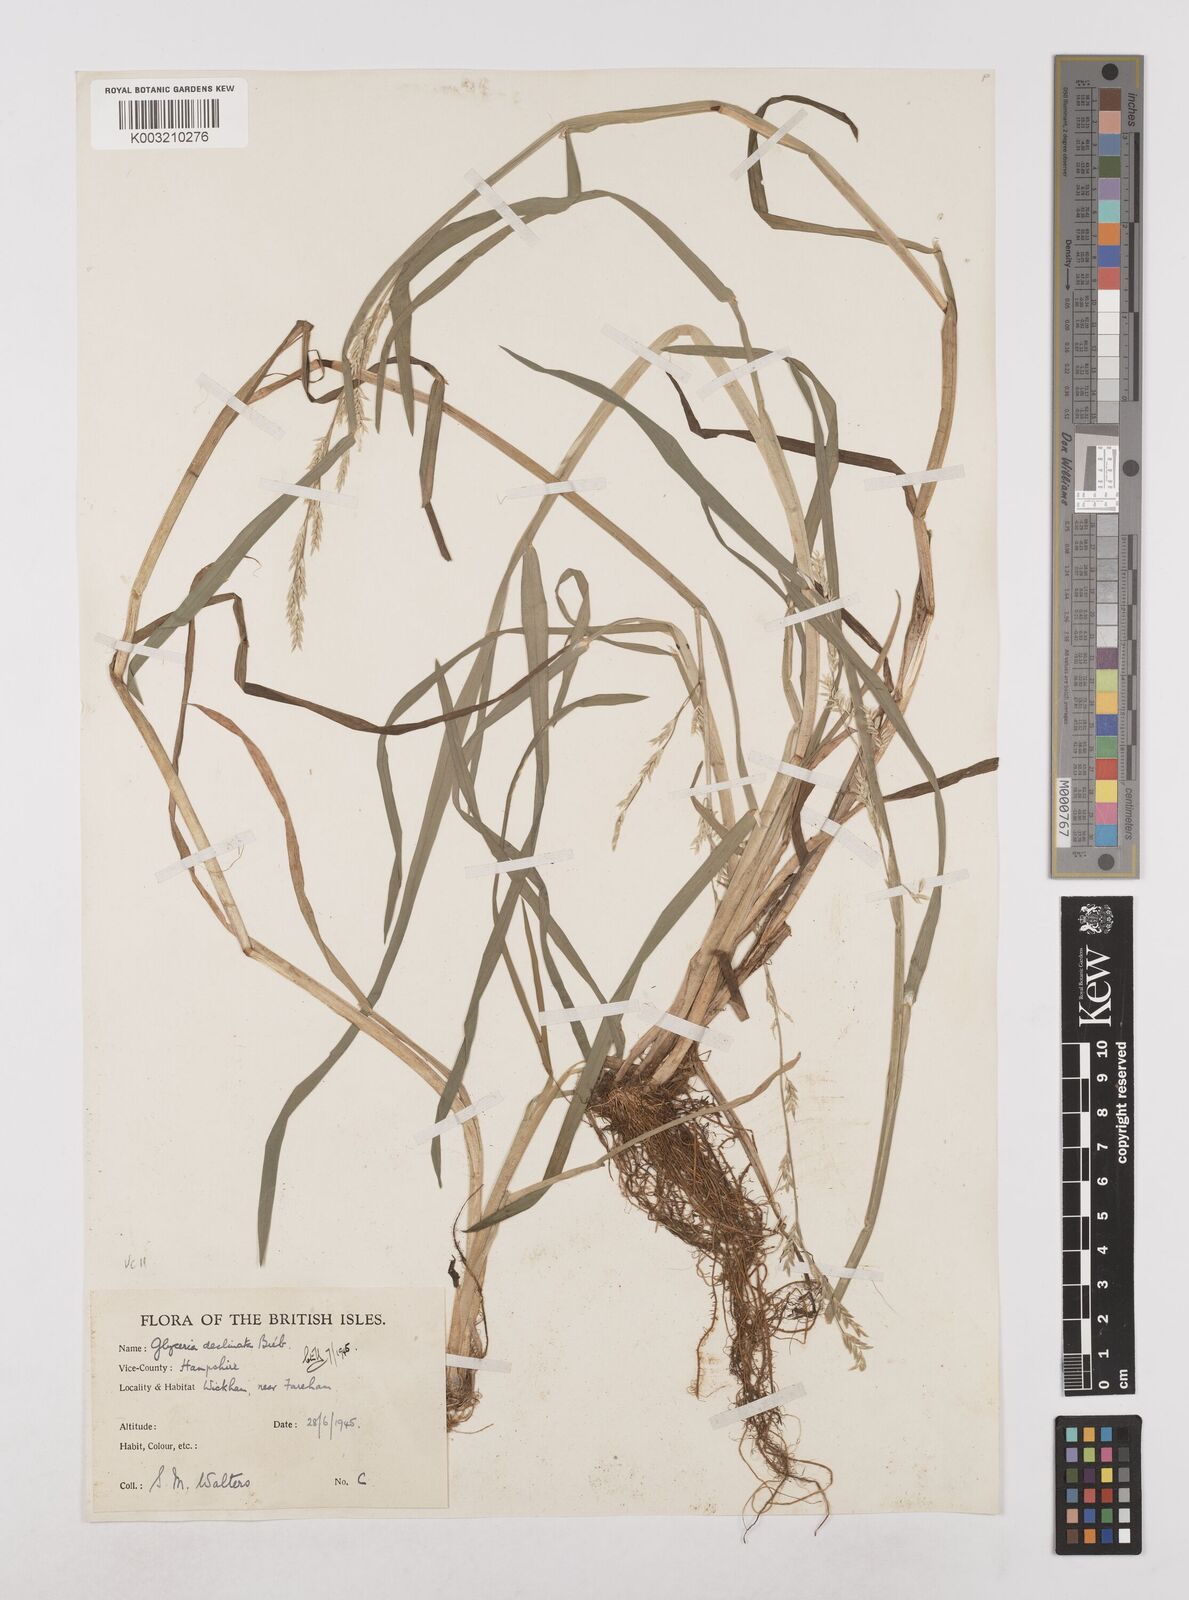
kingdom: Plantae
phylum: Tracheophyta
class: Liliopsida
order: Poales
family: Poaceae
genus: Glyceria
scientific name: Glyceria declinata
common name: Small sweet-grass
